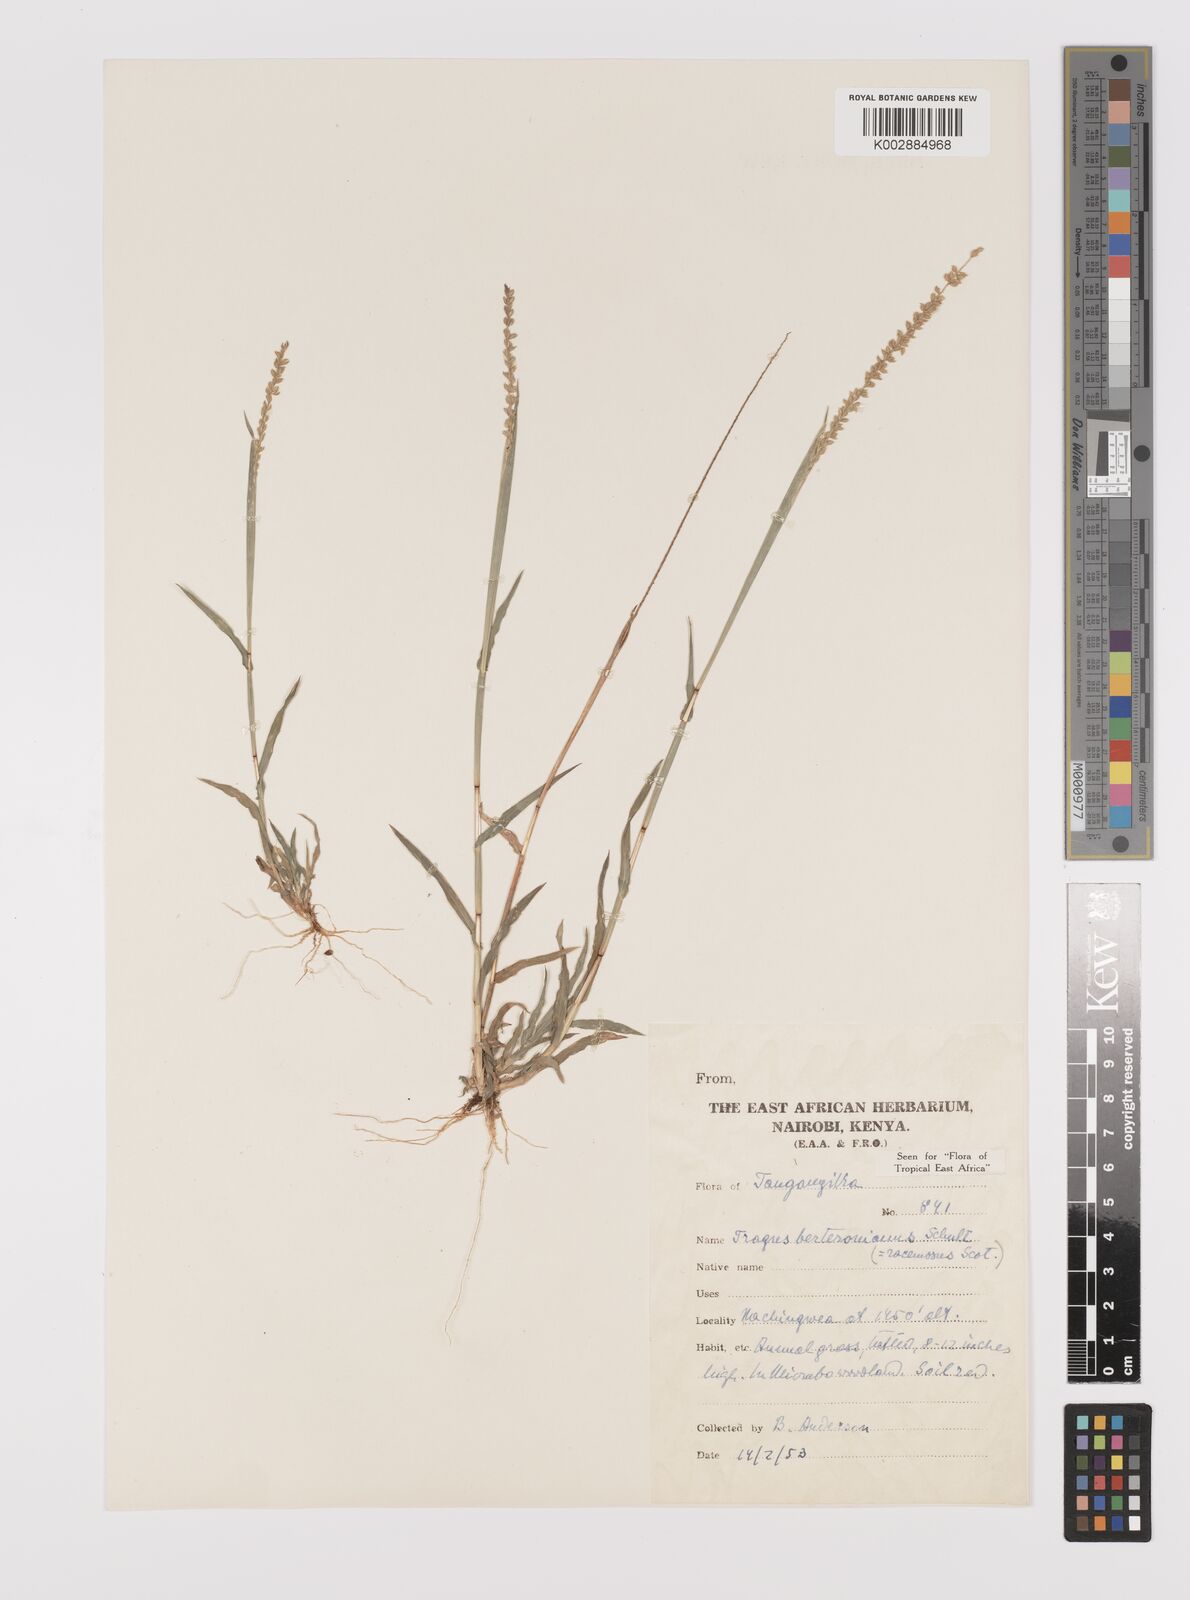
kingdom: Plantae
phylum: Tracheophyta
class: Liliopsida
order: Poales
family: Poaceae
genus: Tragus
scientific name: Tragus berteronianus
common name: African bur-grass
